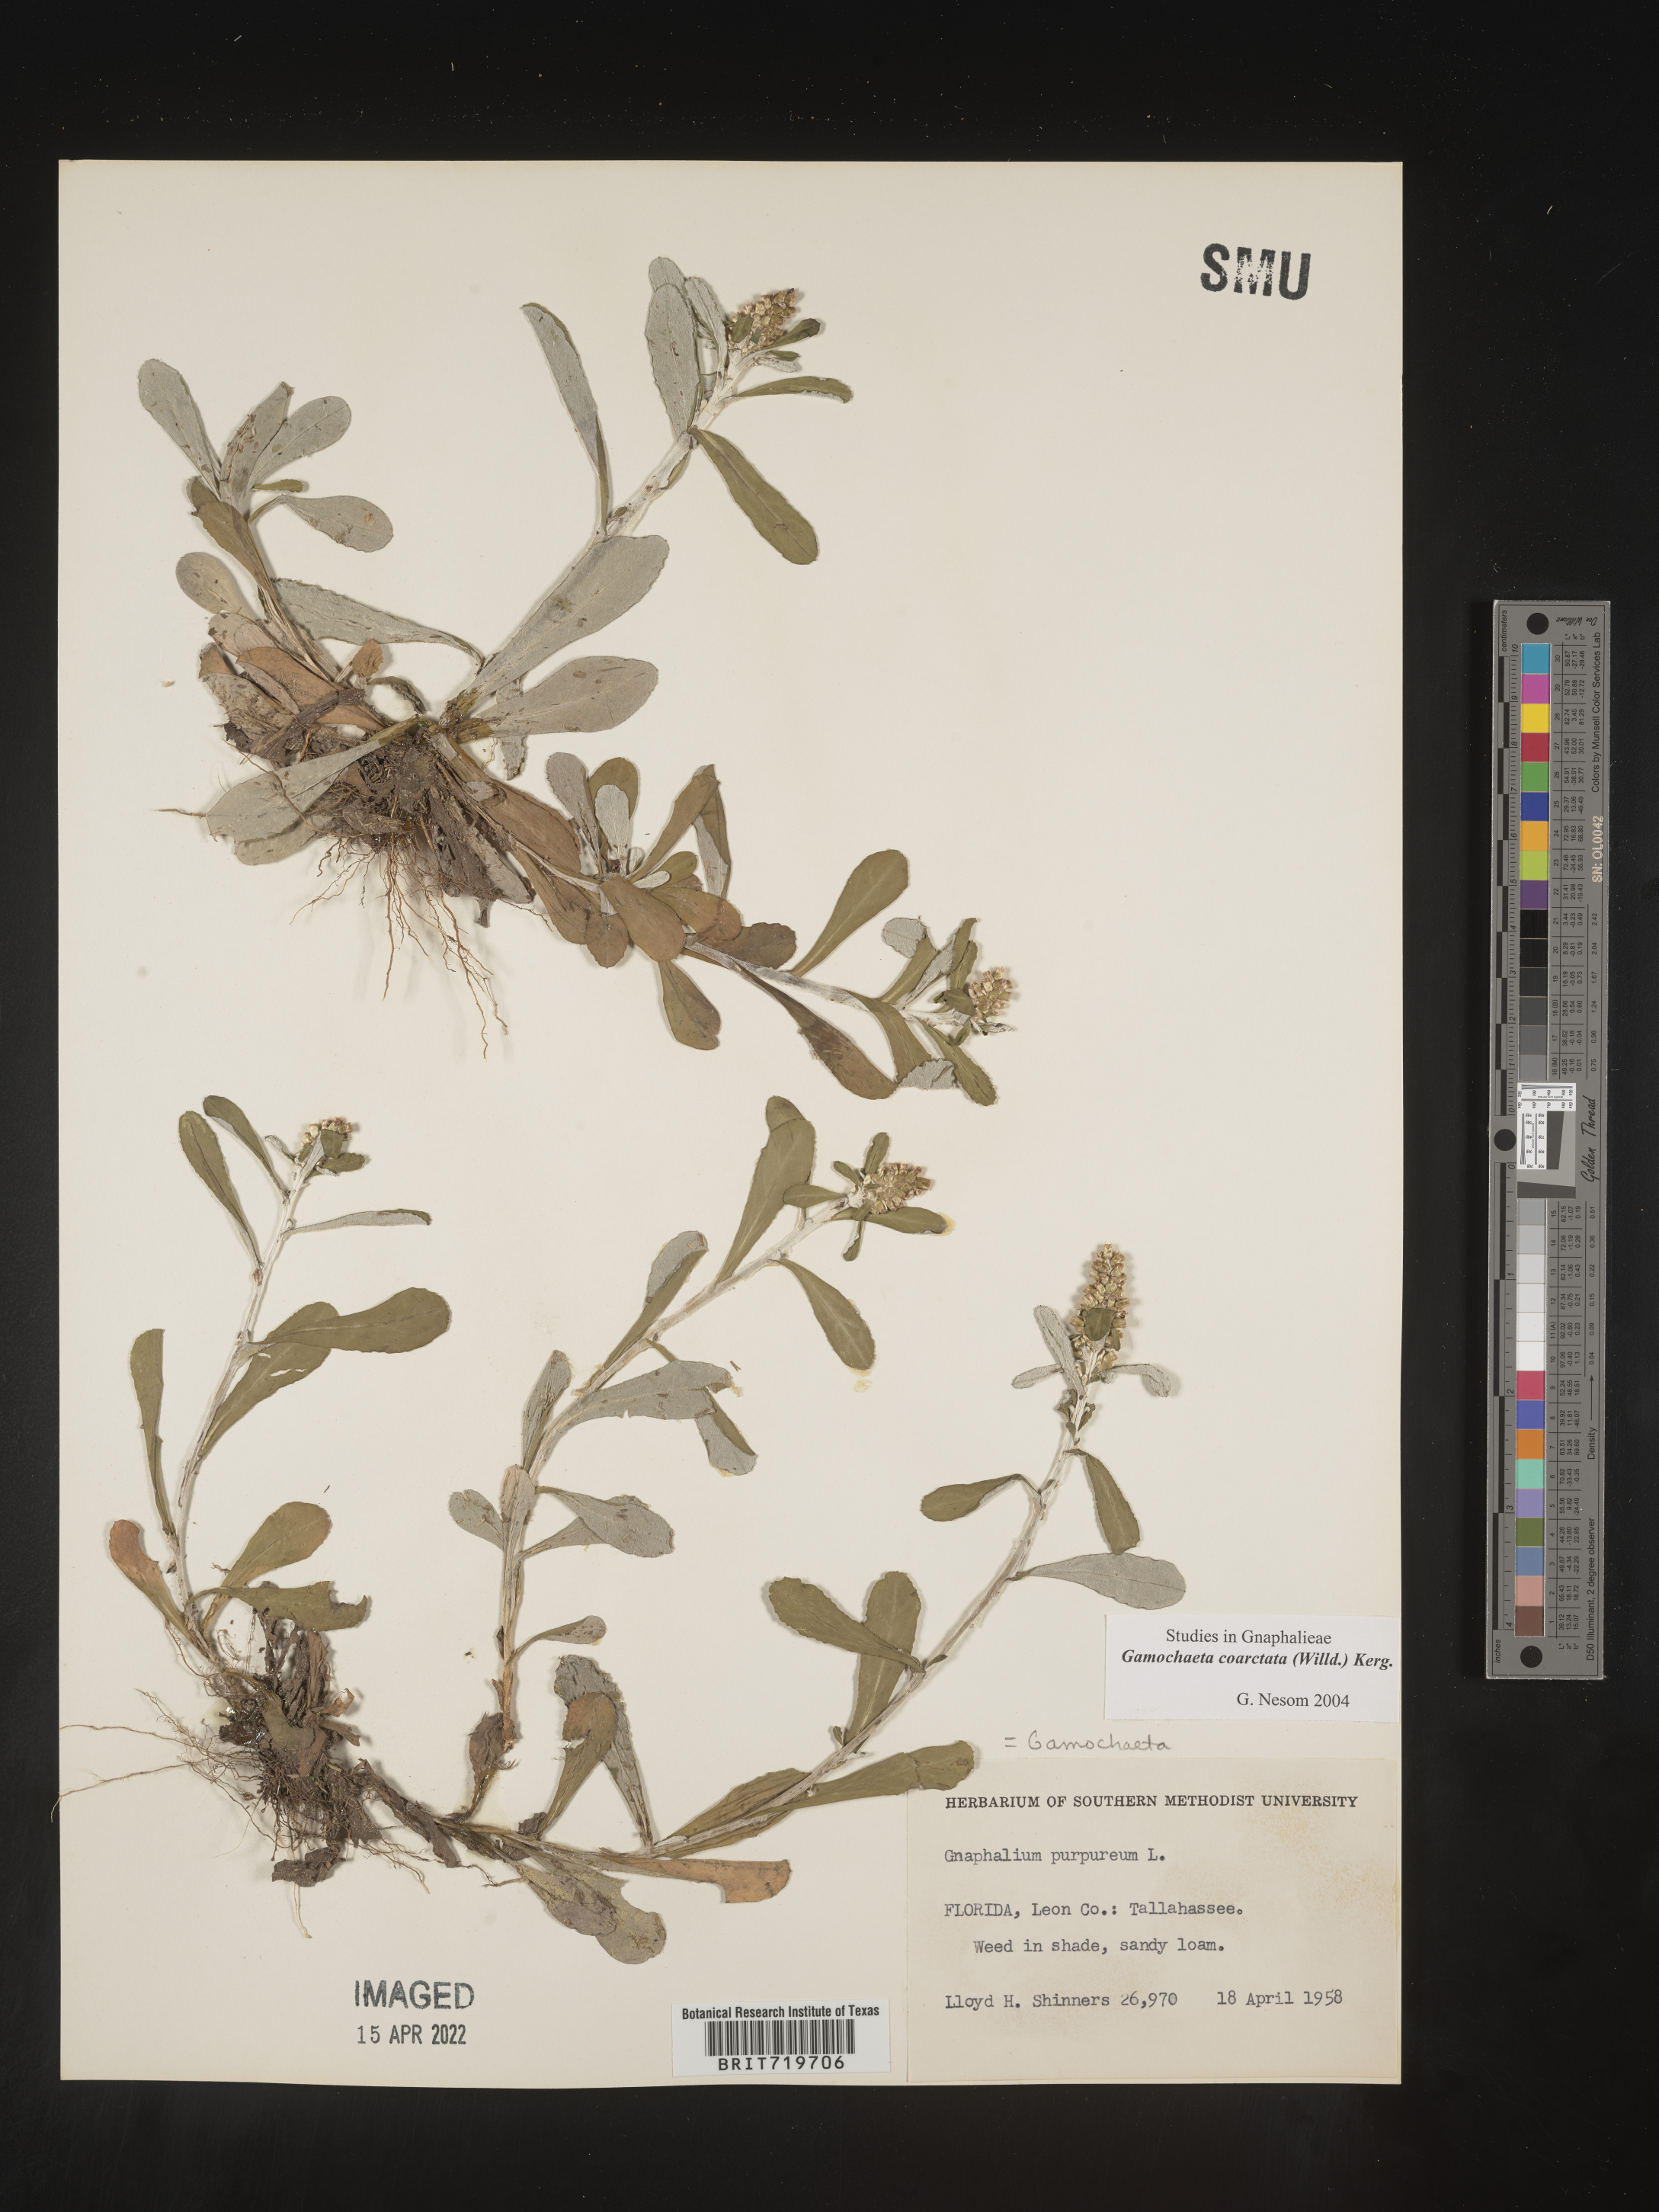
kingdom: Plantae
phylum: Tracheophyta
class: Magnoliopsida
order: Asterales
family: Asteraceae
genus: Gamochaeta
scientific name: Gamochaeta americana
